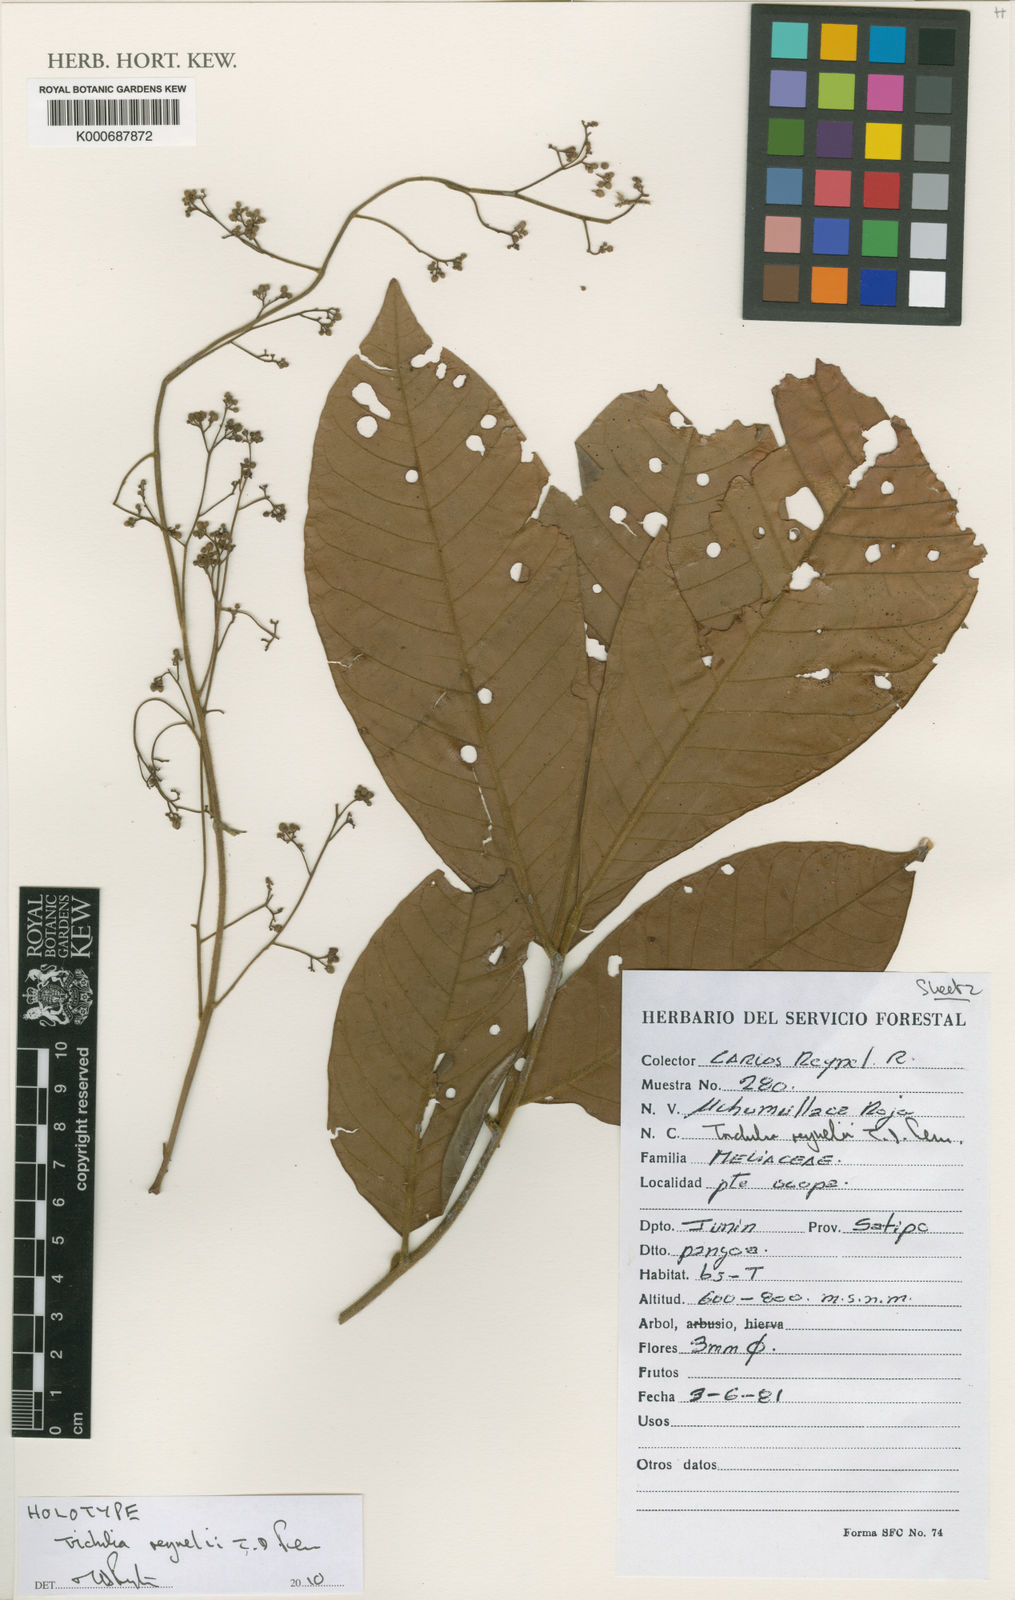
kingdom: Plantae
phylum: Tracheophyta
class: Magnoliopsida
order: Sapindales
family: Meliaceae
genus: Trichilia
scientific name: Trichilia
